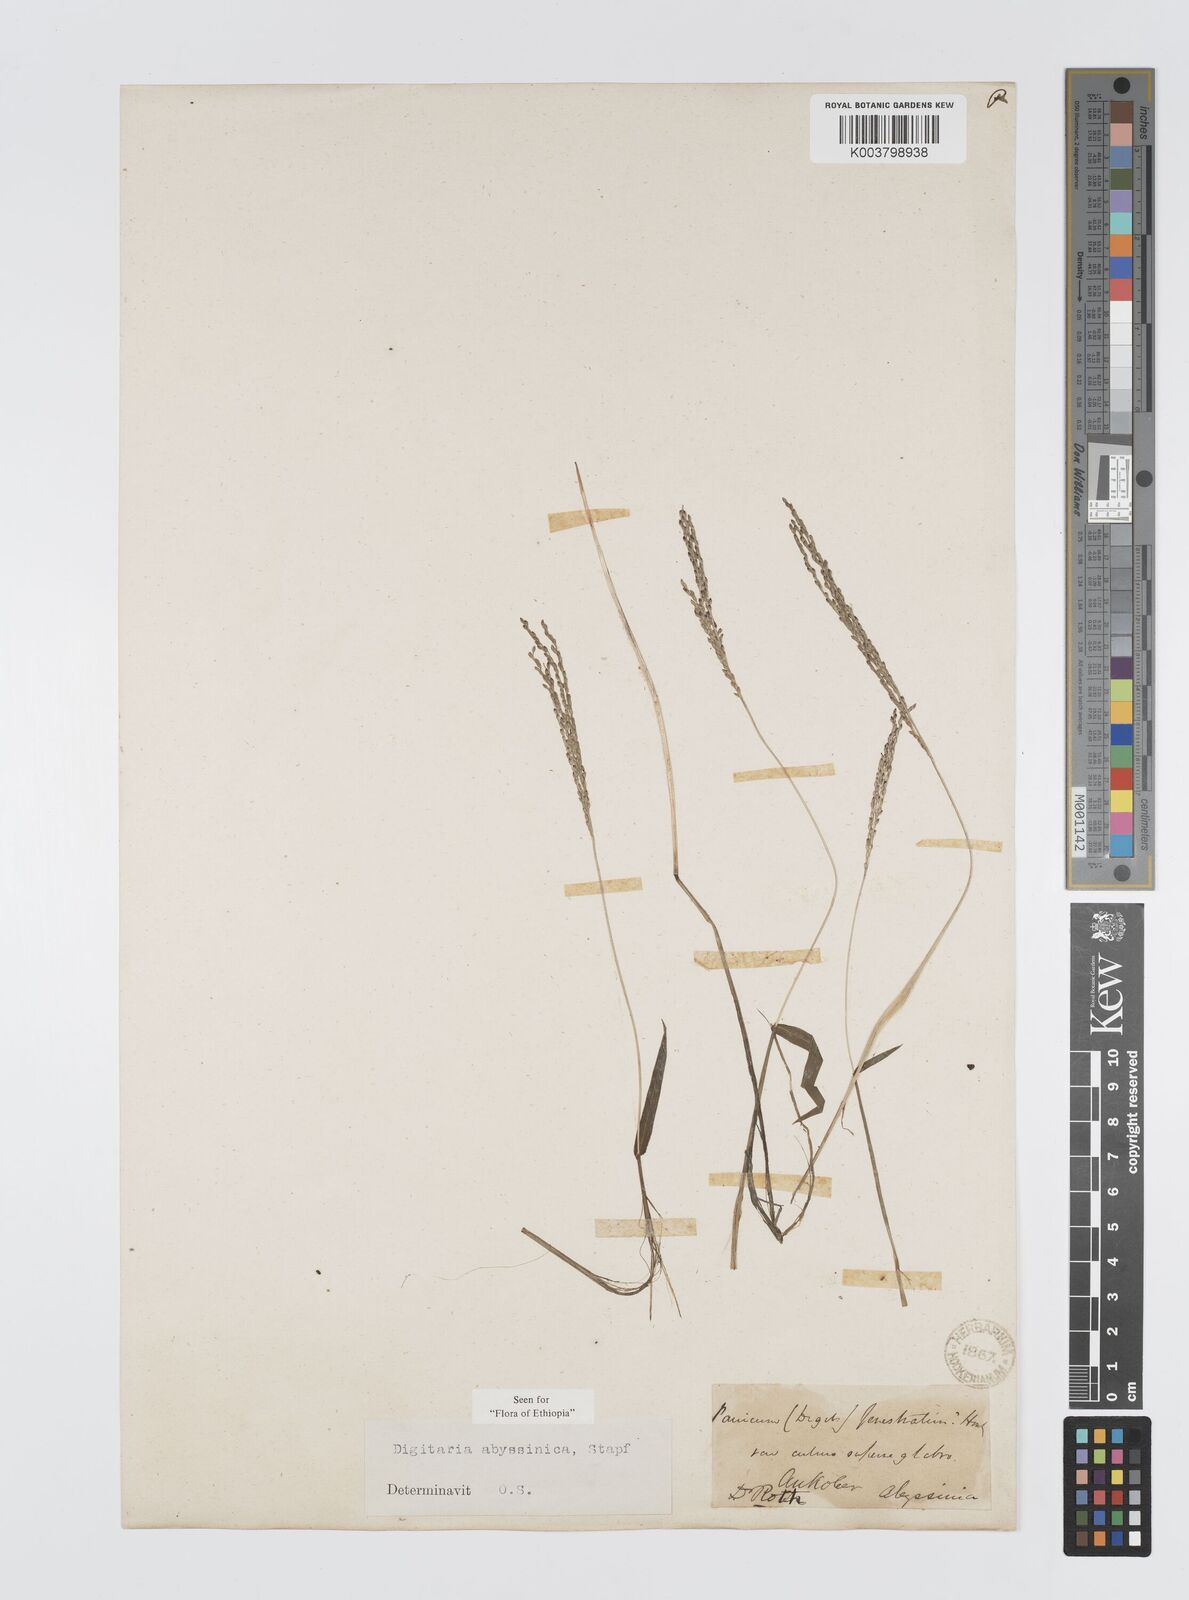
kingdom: Plantae
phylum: Tracheophyta
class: Liliopsida
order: Poales
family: Poaceae
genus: Digitaria
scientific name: Digitaria abyssinica
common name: African couchgrass
